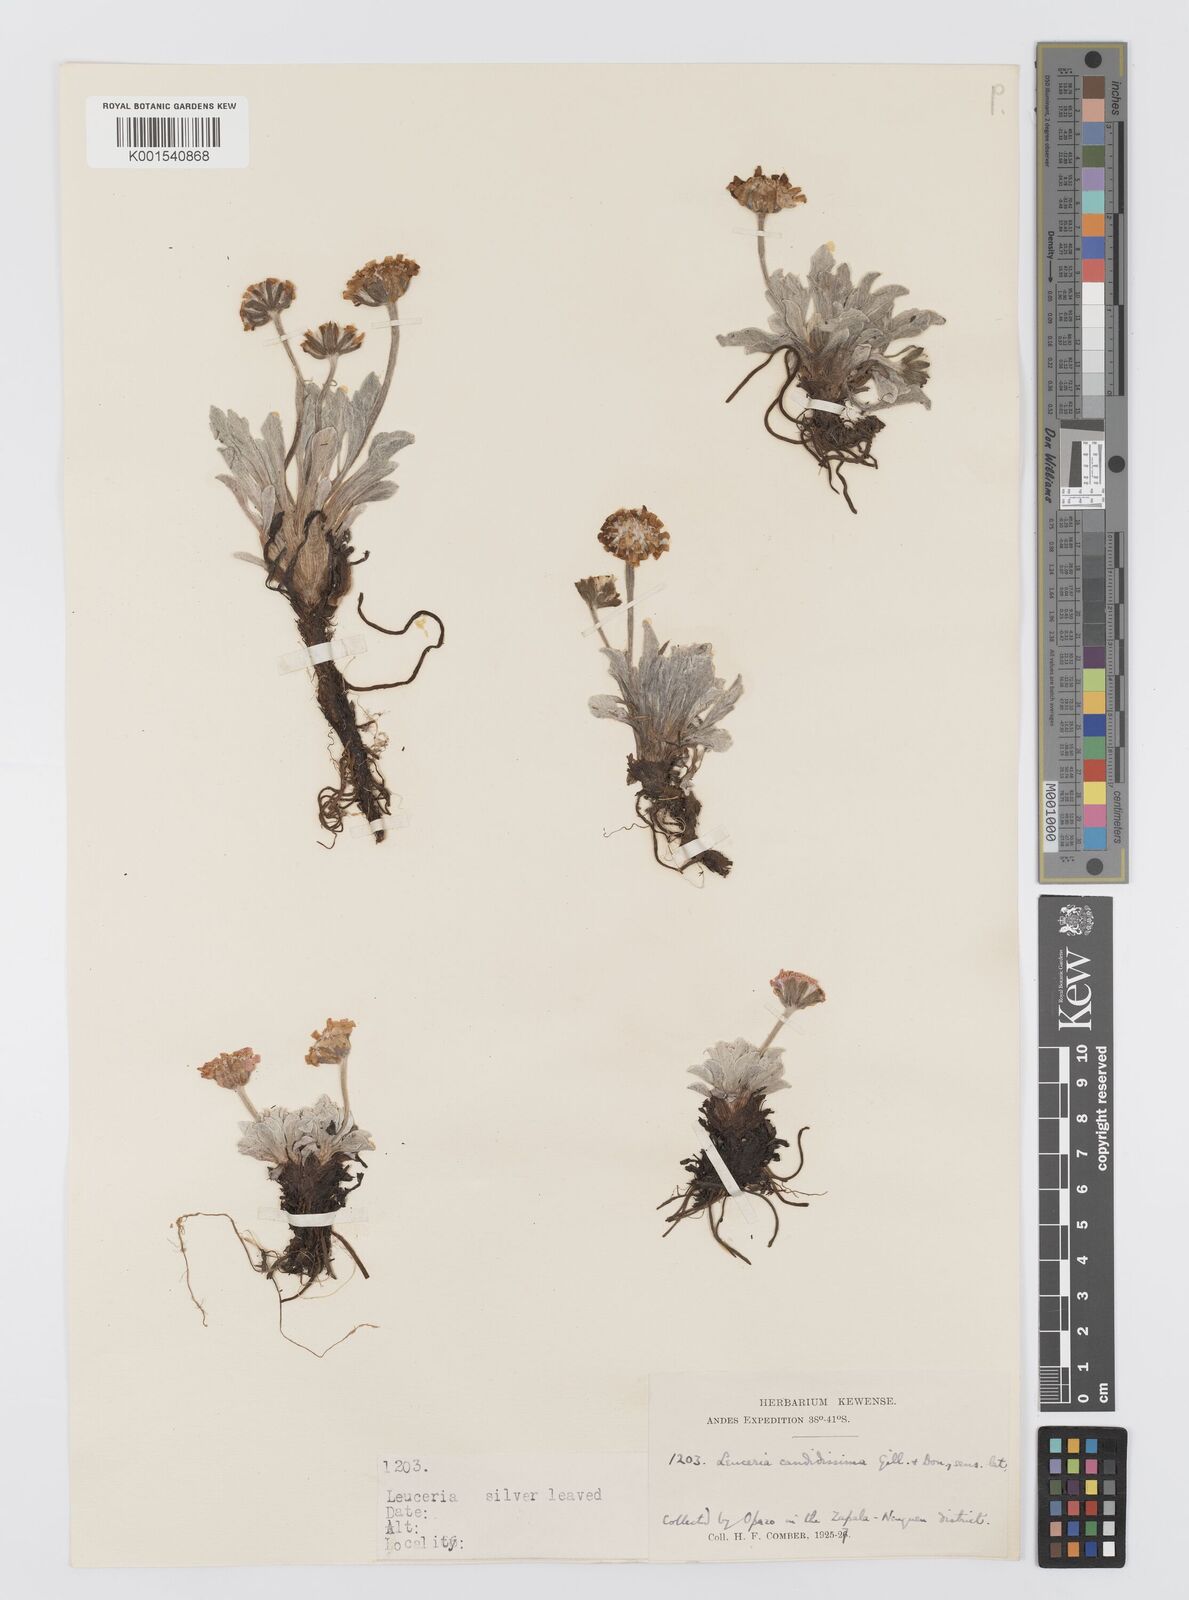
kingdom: Plantae
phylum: Tracheophyta
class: Magnoliopsida
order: Asterales
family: Asteraceae
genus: Leucheria
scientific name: Leucheria candidissima
